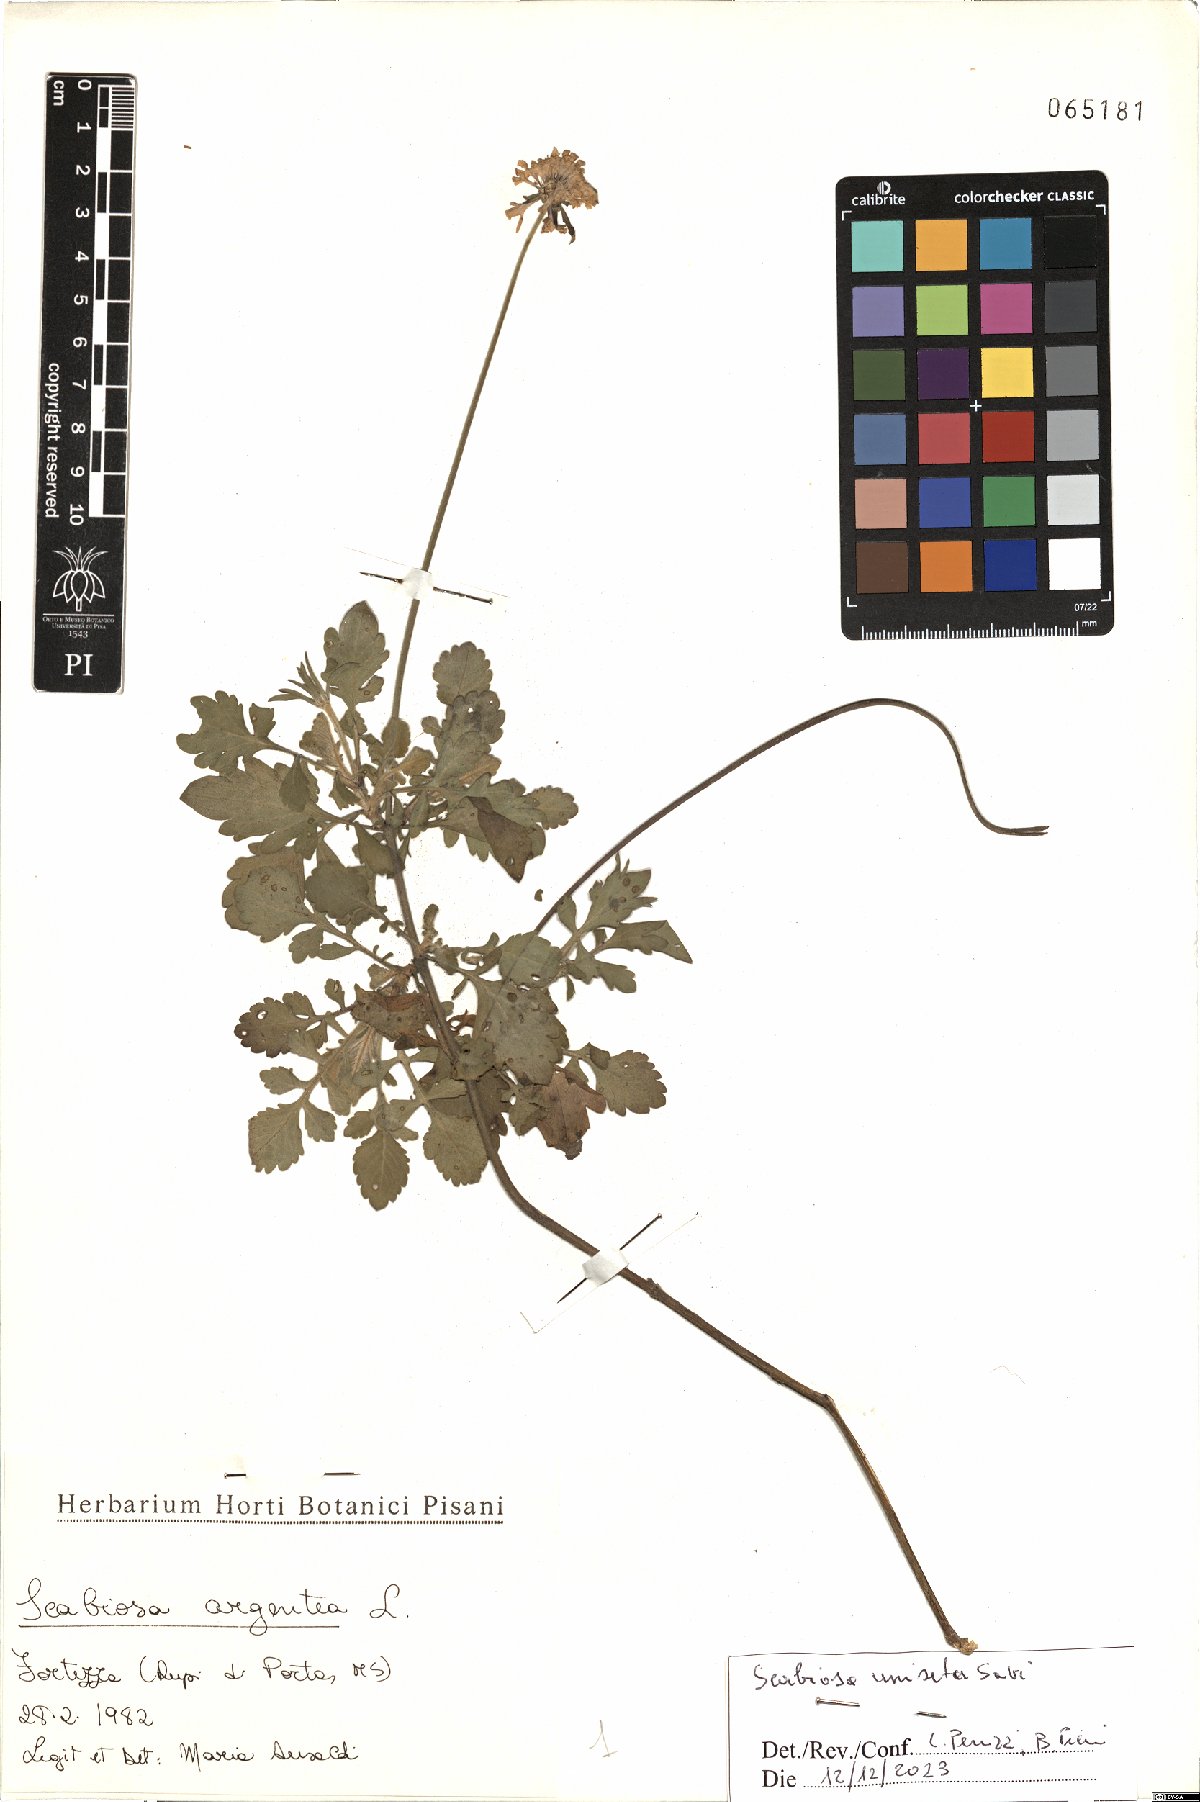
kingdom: Plantae
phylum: Tracheophyta
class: Magnoliopsida
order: Dipsacales
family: Caprifoliaceae
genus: Scabiosa
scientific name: Scabiosa columbaria
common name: Small scabious
